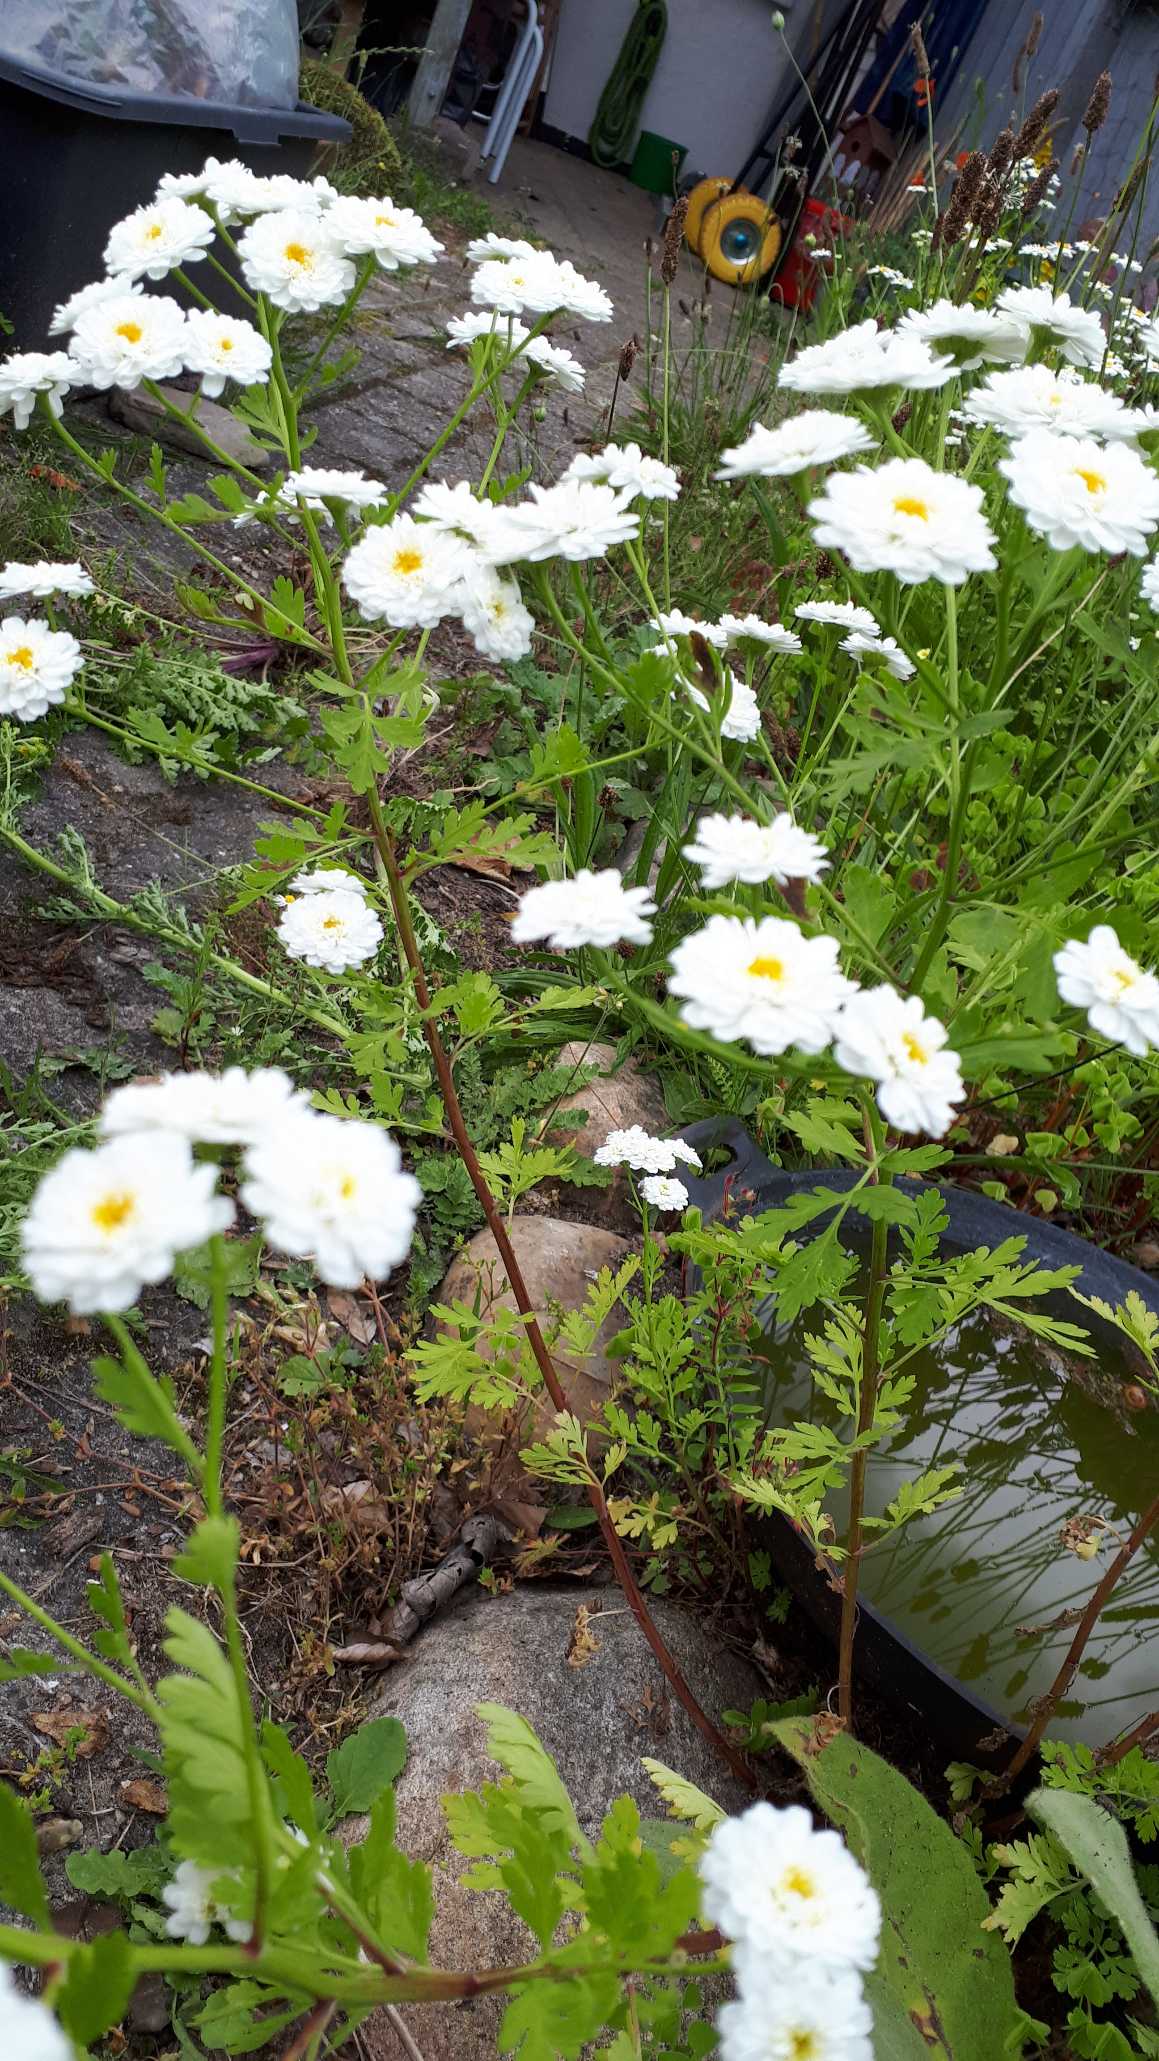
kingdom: Plantae
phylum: Tracheophyta
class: Magnoliopsida
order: Asterales
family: Asteraceae
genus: Tanacetum
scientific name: Tanacetum parthenium
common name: Matrem
